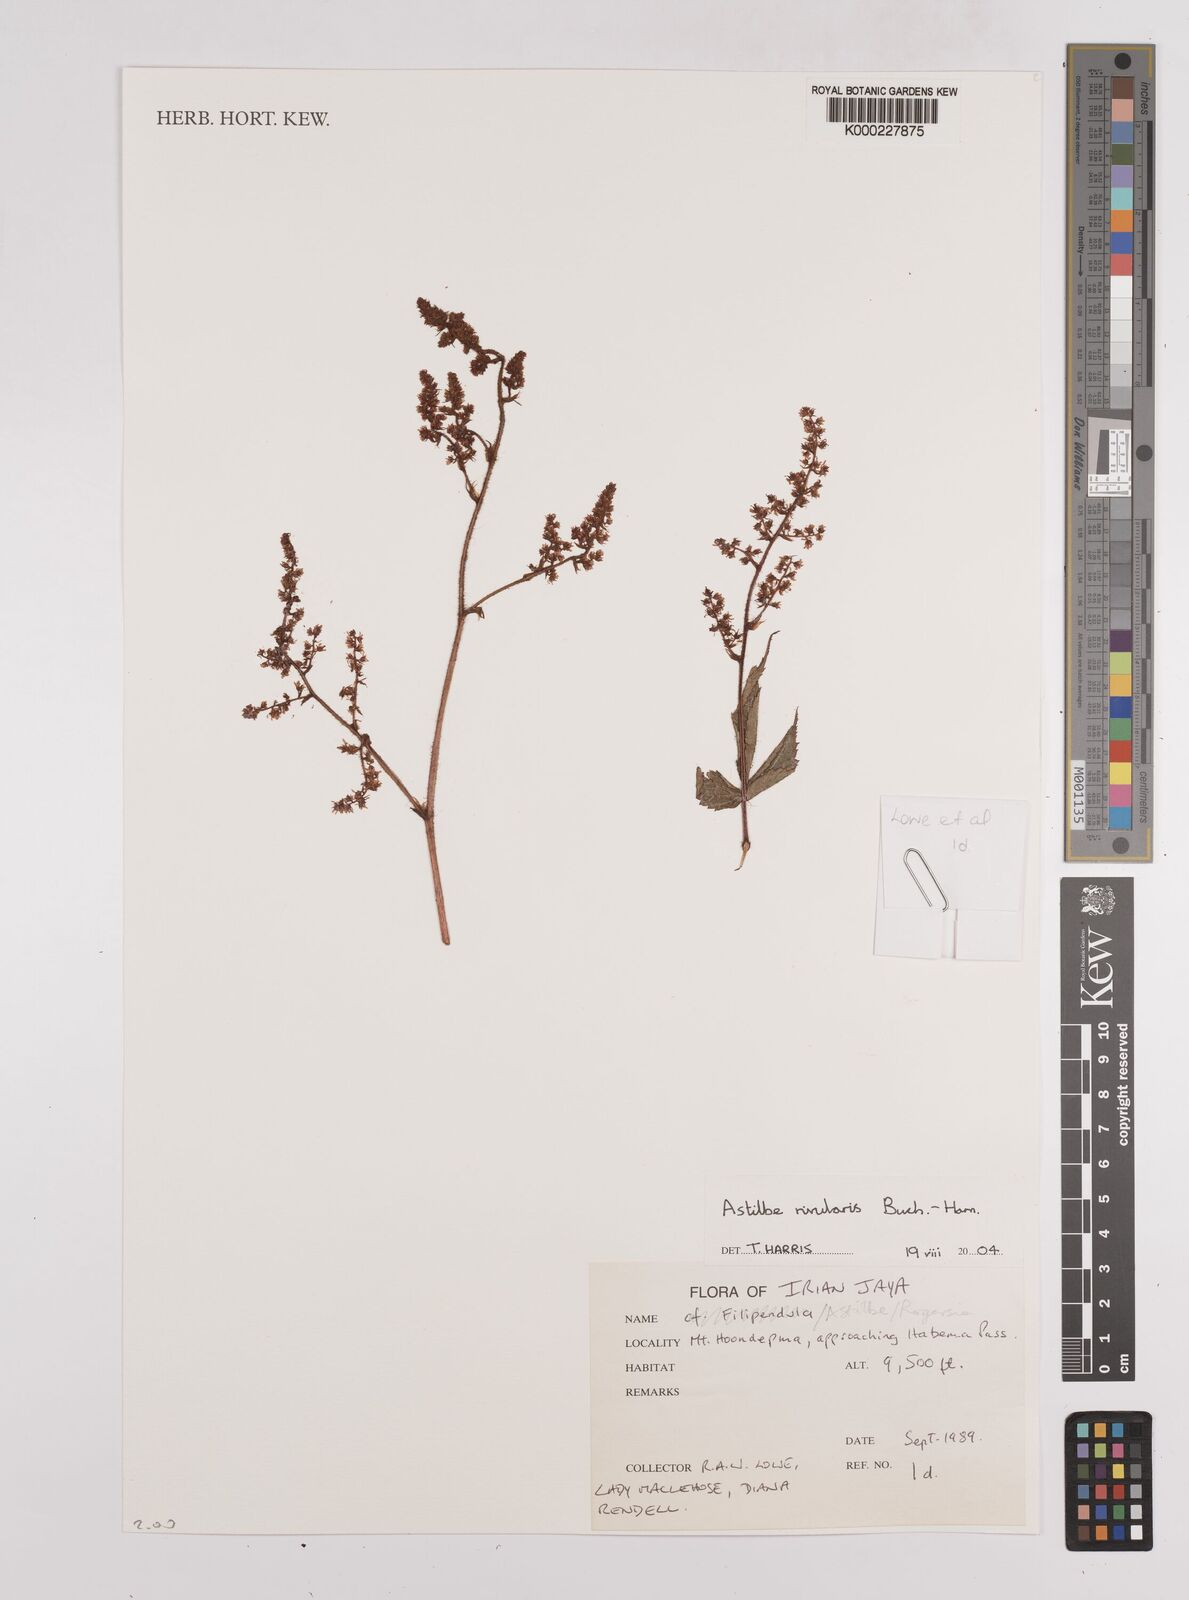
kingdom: Plantae
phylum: Tracheophyta
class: Magnoliopsida
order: Saxifragales
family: Saxifragaceae
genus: Astilbe
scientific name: Astilbe
